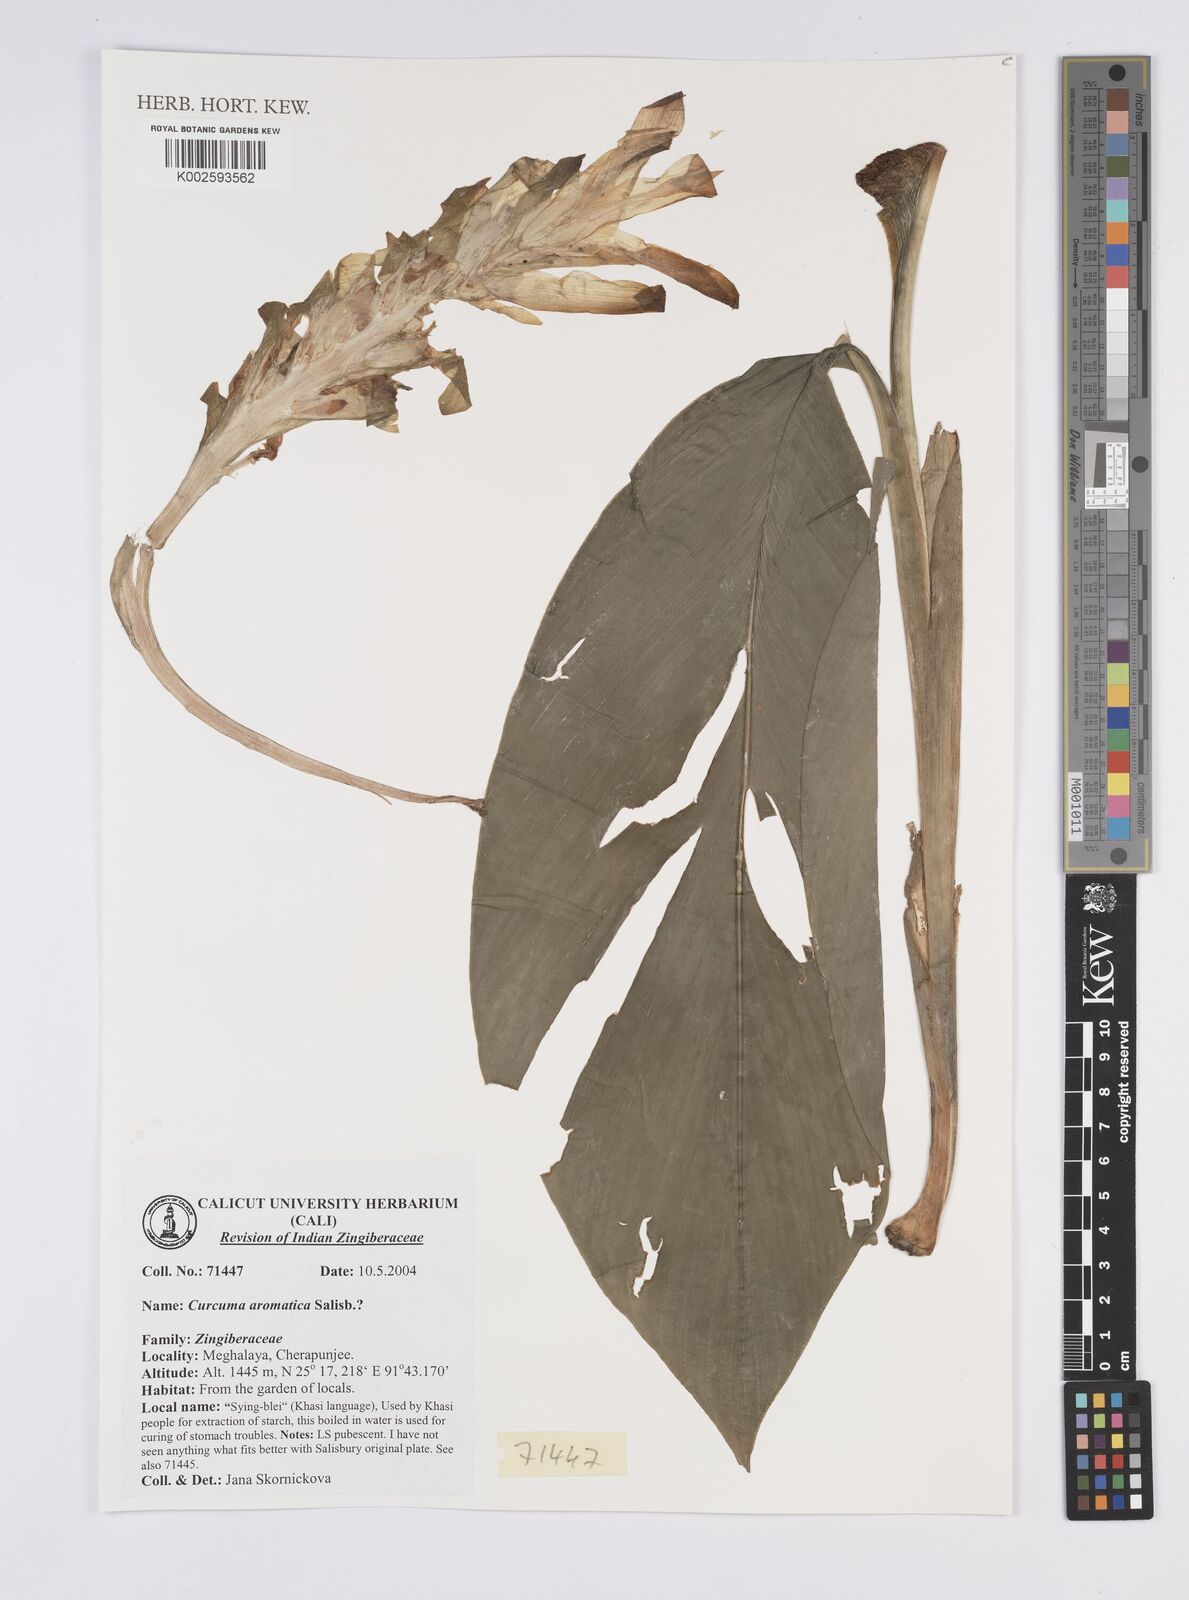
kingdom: Plantae
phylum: Tracheophyta
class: Liliopsida
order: Zingiberales
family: Zingiberaceae
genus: Curcuma
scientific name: Curcuma aromatica
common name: Wild turmeric
